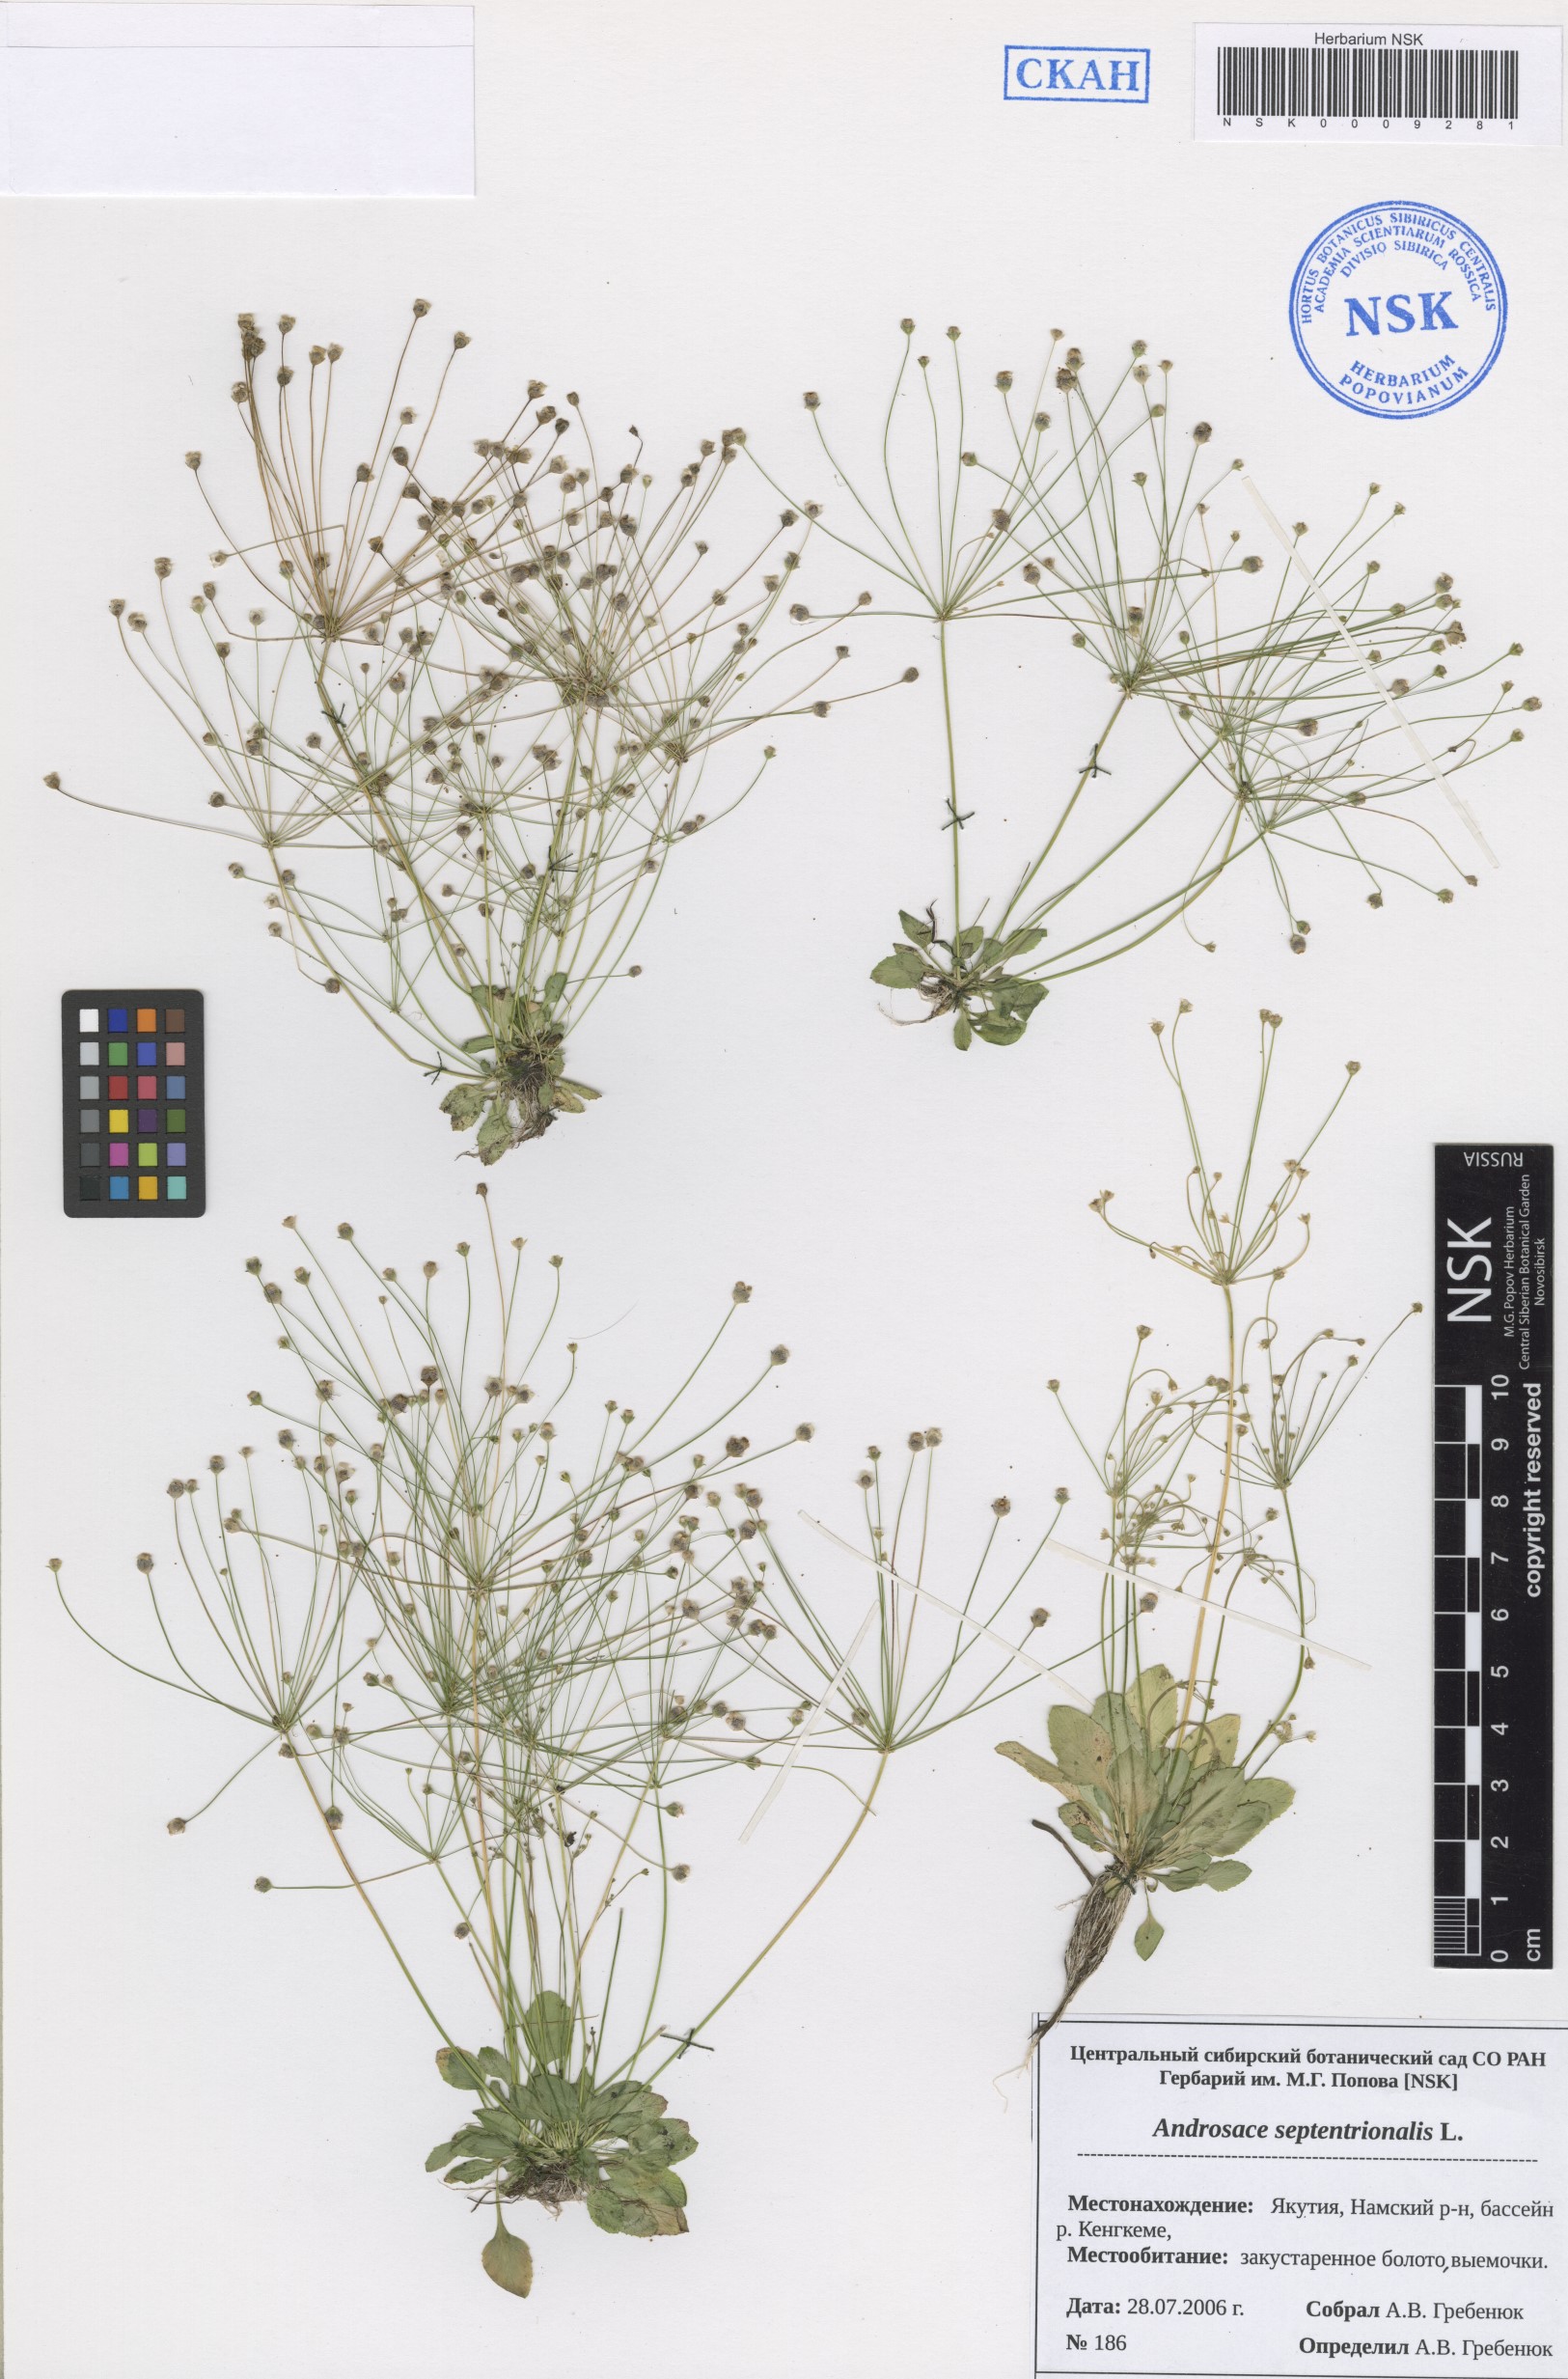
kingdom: Plantae
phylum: Tracheophyta
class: Magnoliopsida
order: Ericales
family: Primulaceae
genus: Androsace
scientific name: Androsace septentrionalis
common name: Hairy northern fairy-candelabra
